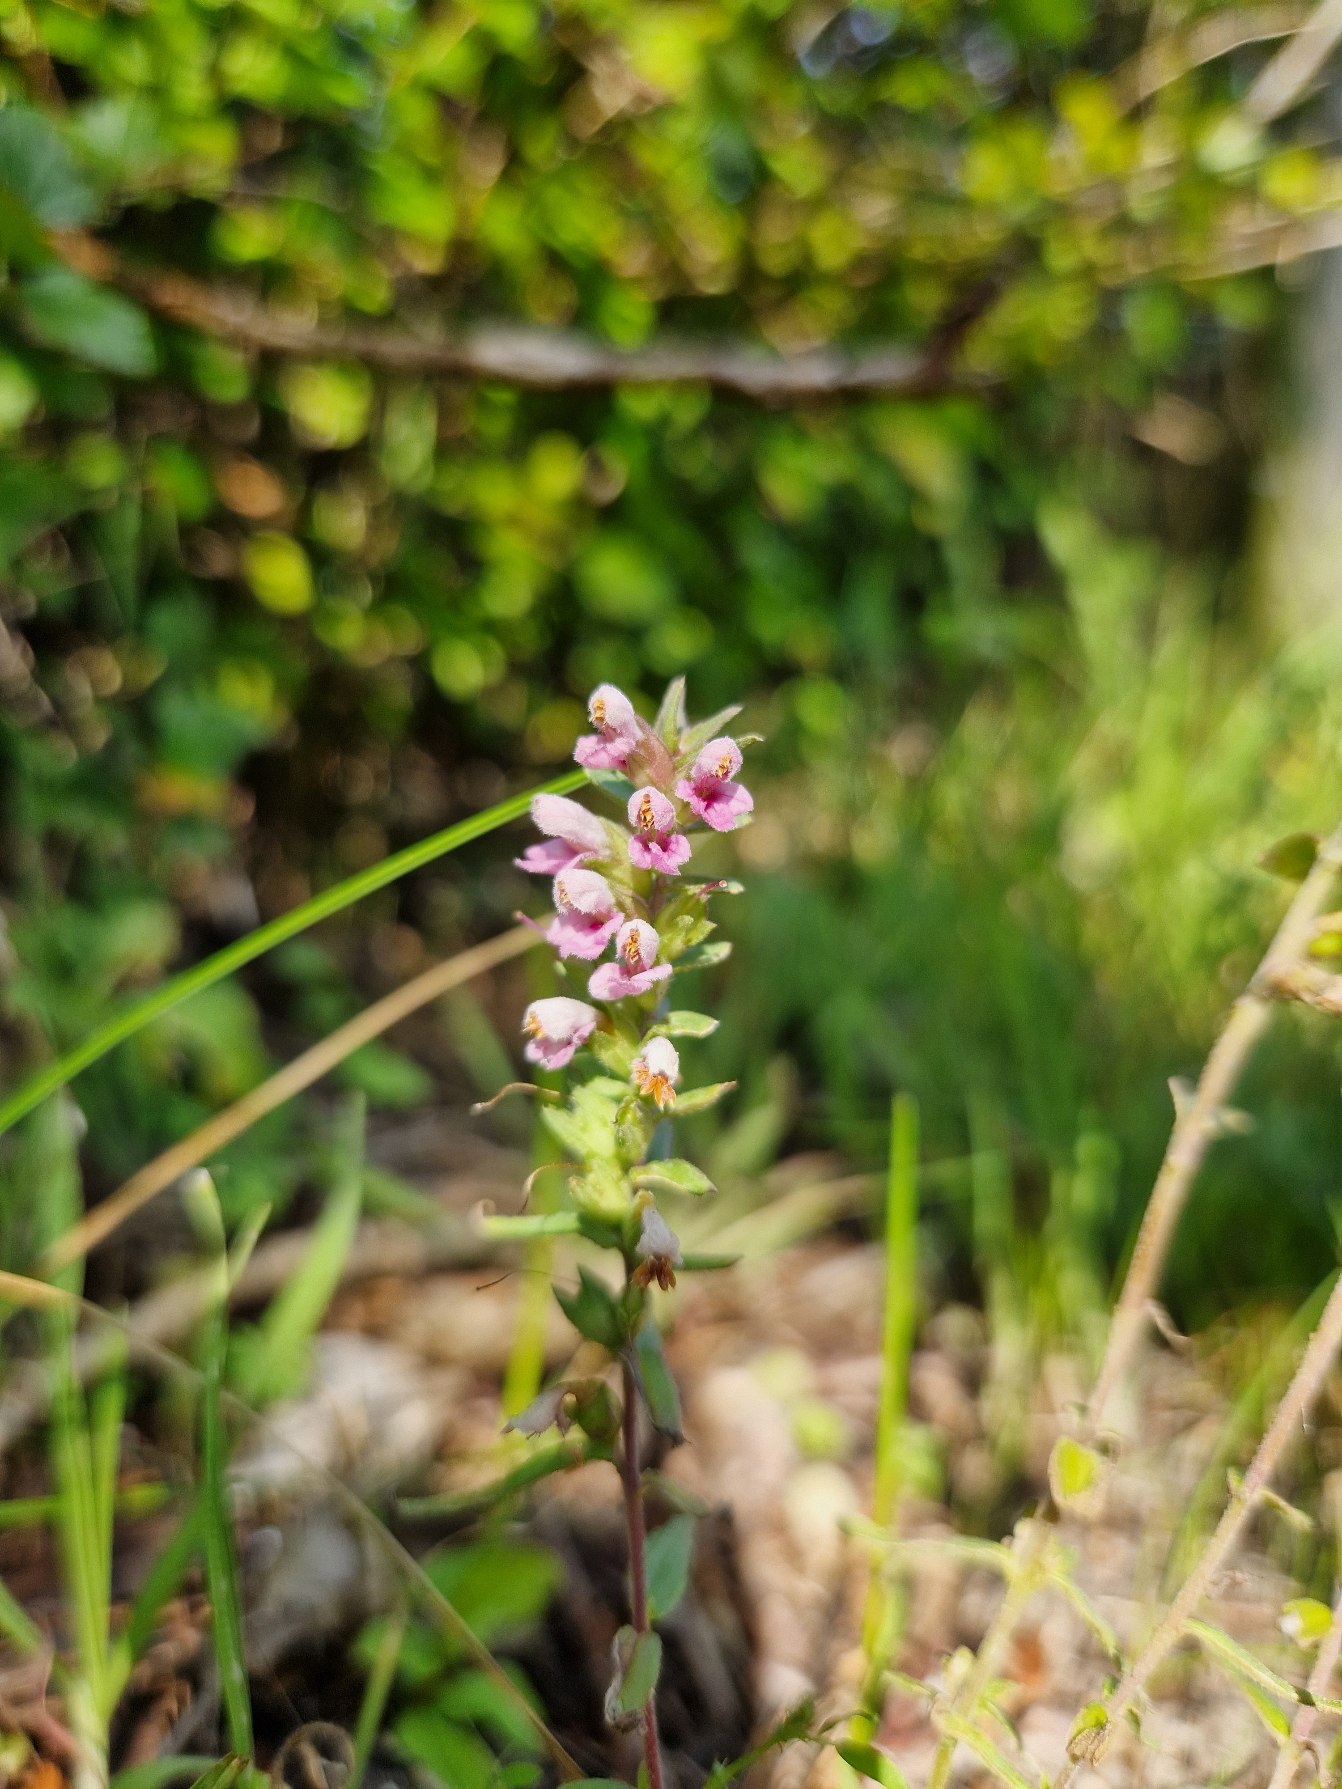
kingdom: Plantae
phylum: Tracheophyta
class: Magnoliopsida
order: Lamiales
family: Orobanchaceae
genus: Odontites
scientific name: Odontites vernus
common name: Mark-rødtop
